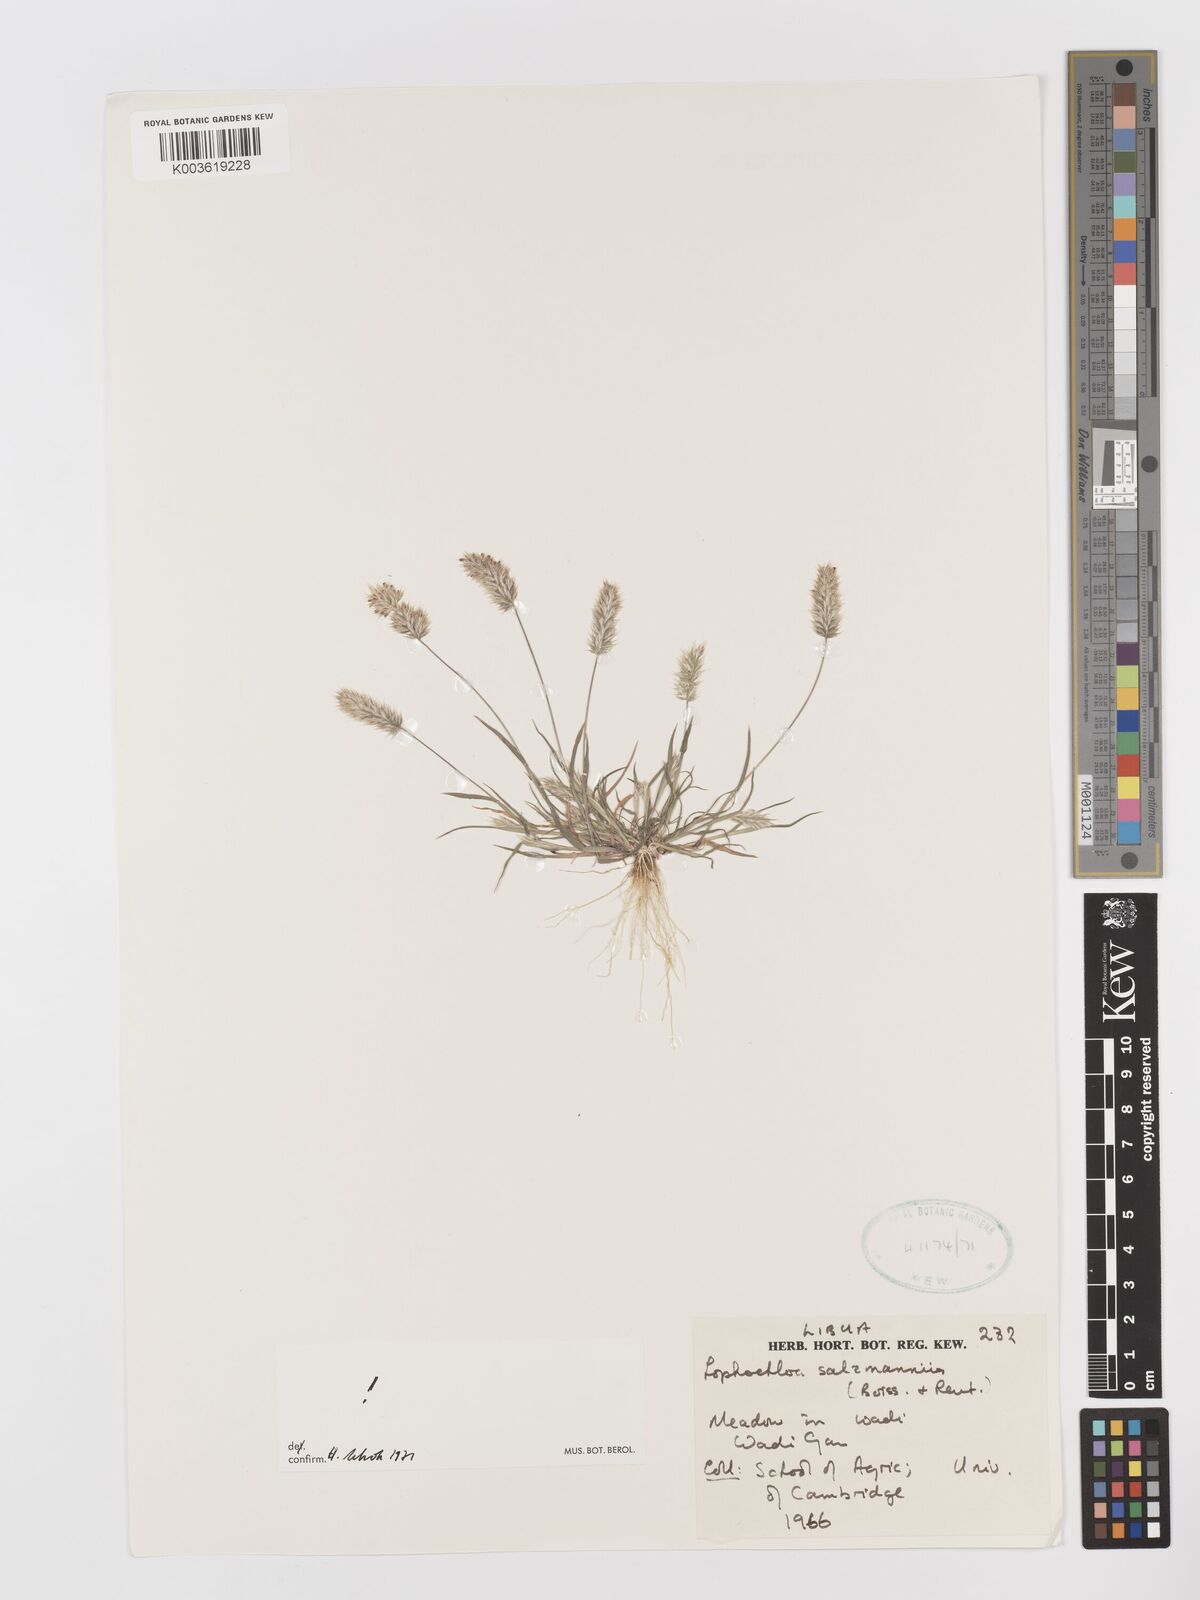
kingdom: Plantae
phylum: Tracheophyta
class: Liliopsida
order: Poales
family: Poaceae
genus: Rostraria
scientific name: Rostraria salzmannii
